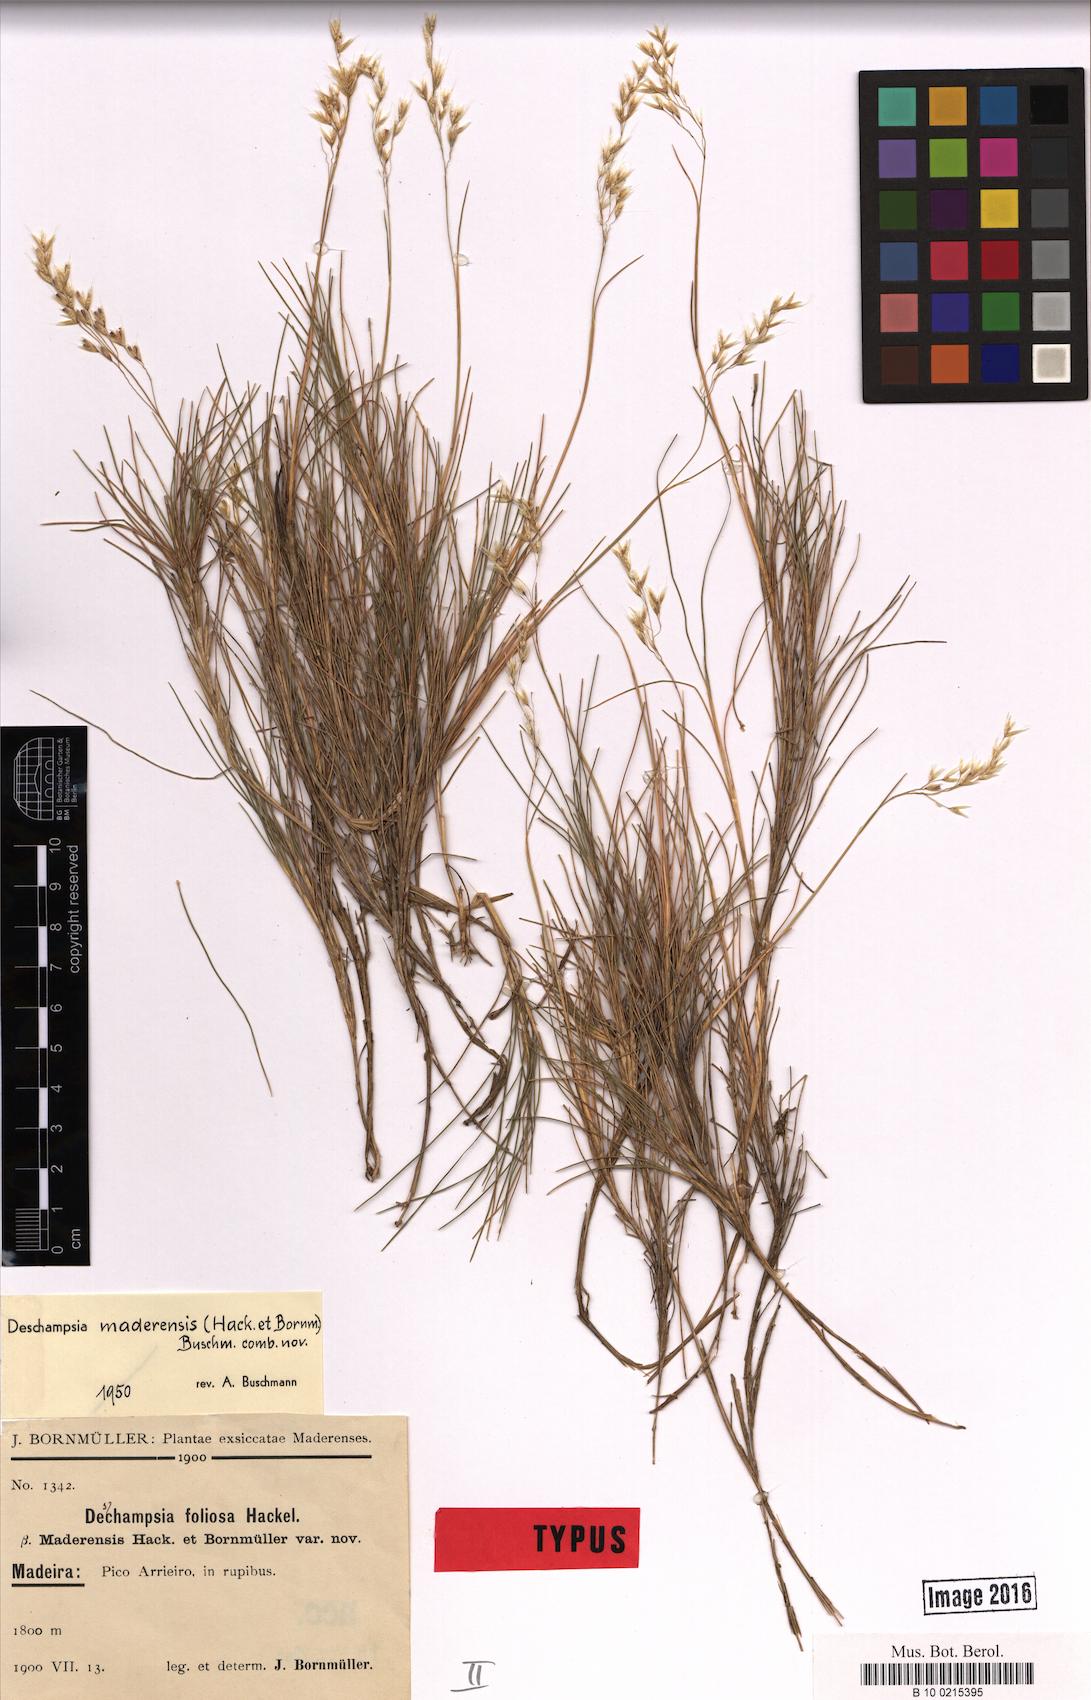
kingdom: Plantae
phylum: Tracheophyta
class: Liliopsida
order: Poales
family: Poaceae
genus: Avenella
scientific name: Avenella flexuosa
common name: Wavy hairgrass
